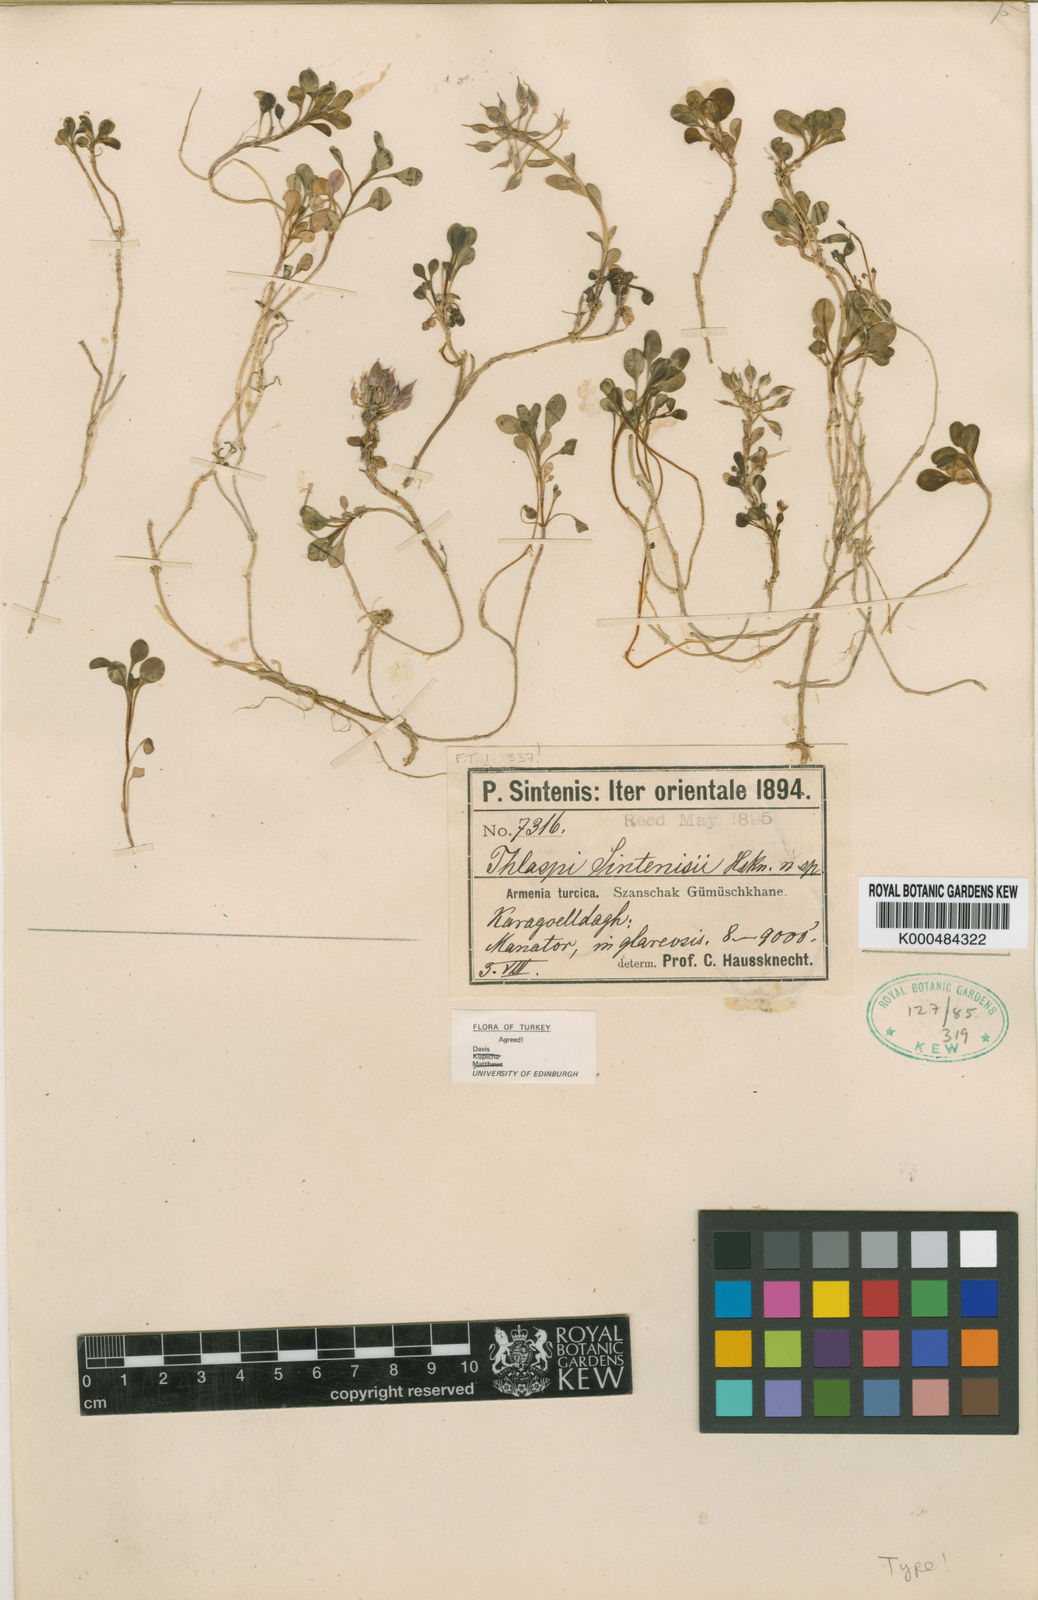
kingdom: Plantae
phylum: Tracheophyta
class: Magnoliopsida
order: Brassicales
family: Brassicaceae
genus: Noccaea
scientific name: Noccaea sintenisii
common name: Sintensis' penny-cress
